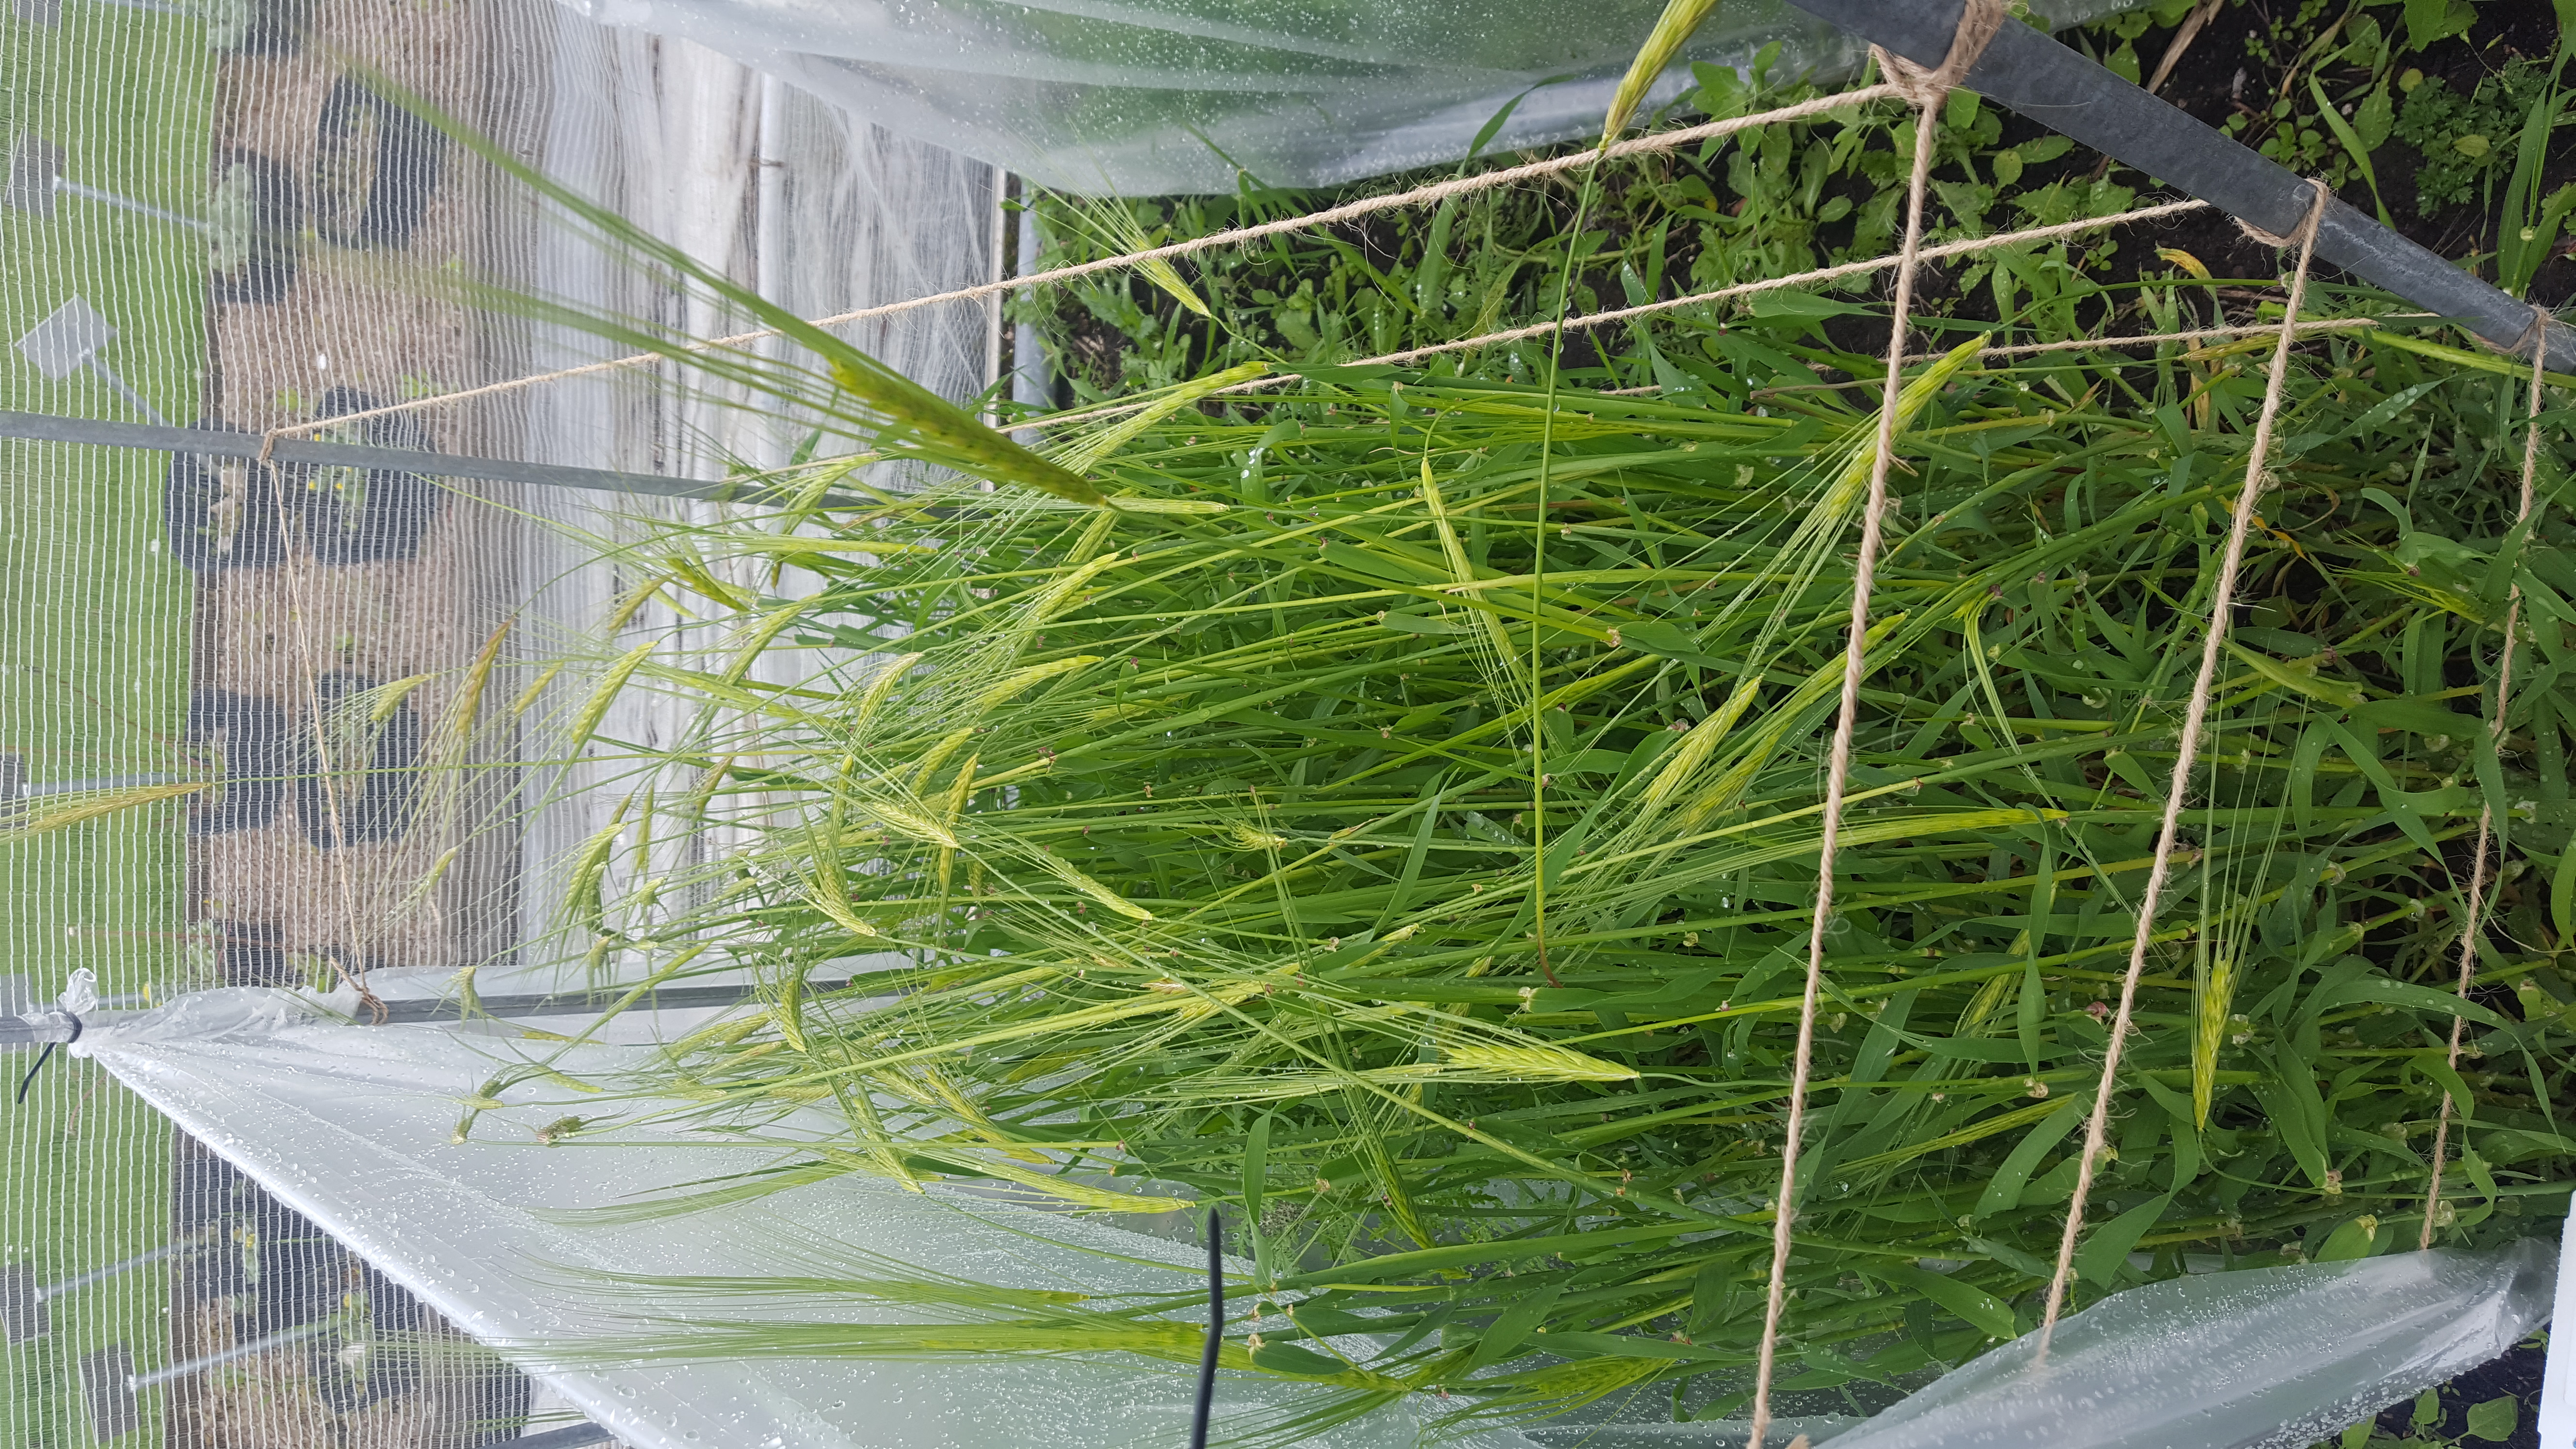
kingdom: Plantae
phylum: Tracheophyta
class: Liliopsida
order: Poales
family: Poaceae
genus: Hordeum
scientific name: Hordeum spontaneum
